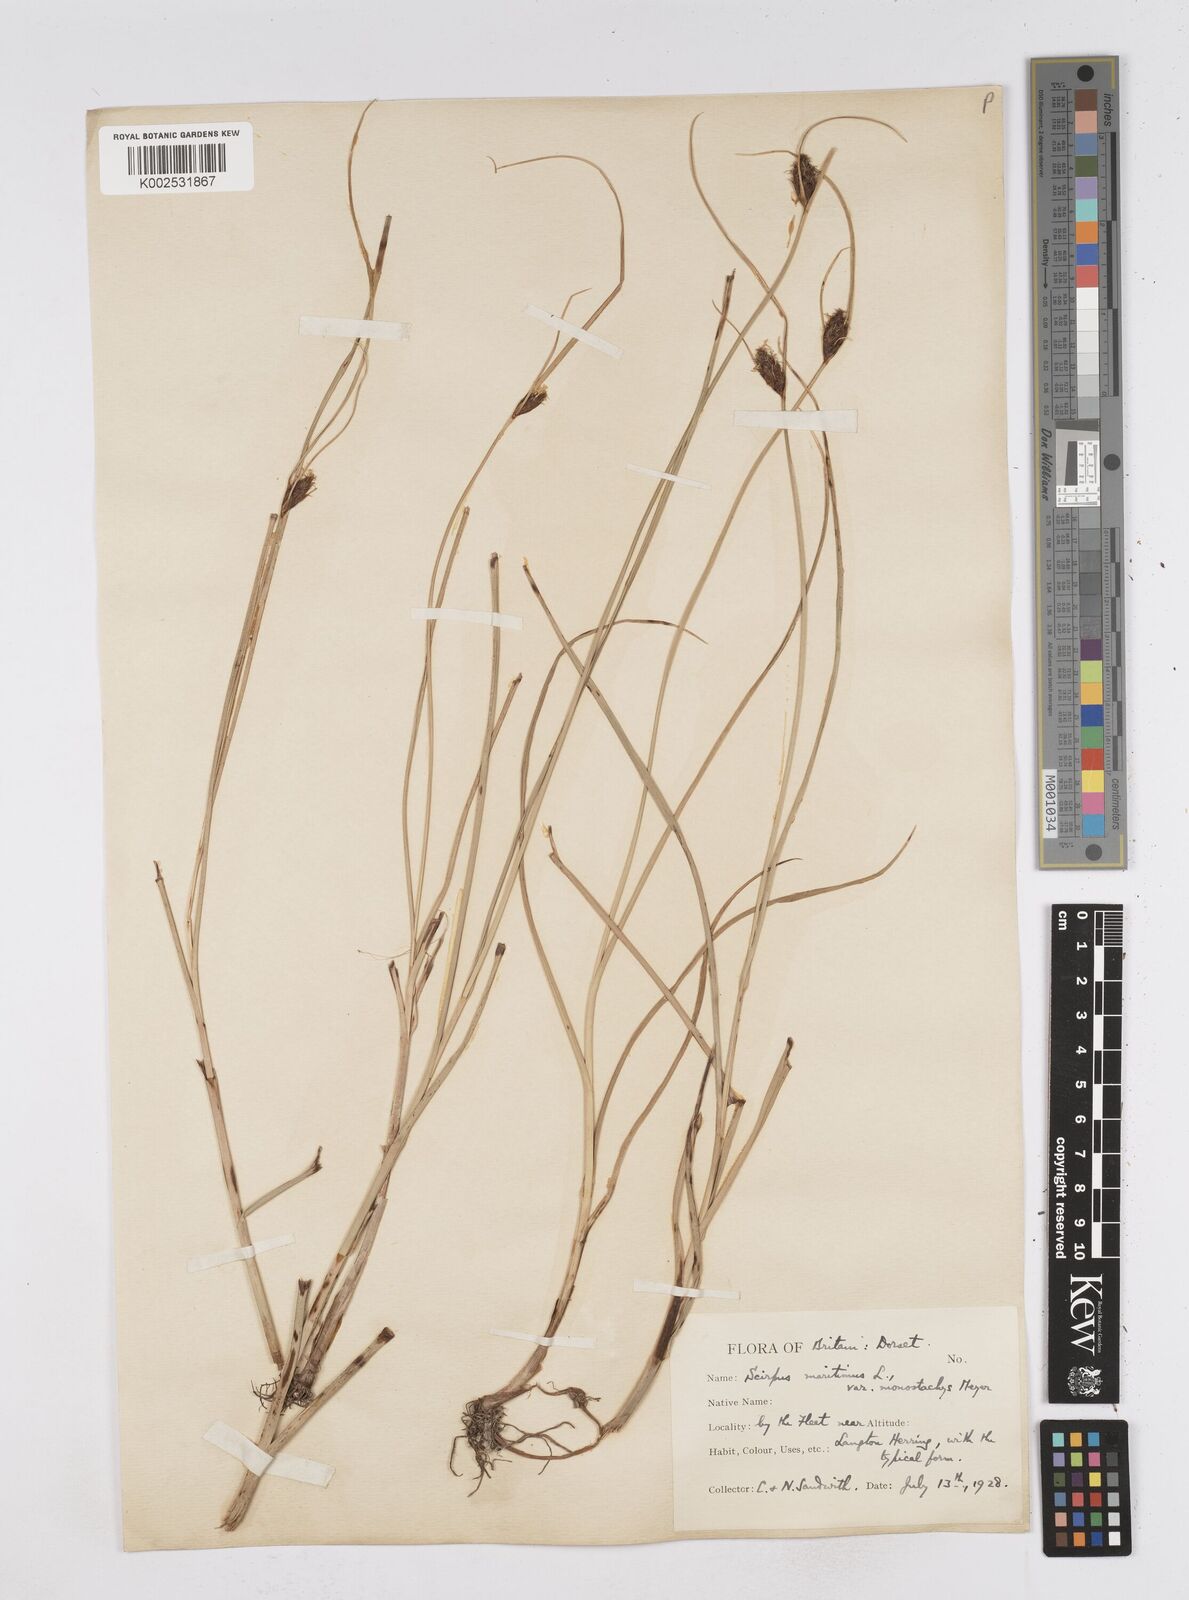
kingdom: Plantae
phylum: Tracheophyta
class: Liliopsida
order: Poales
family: Cyperaceae
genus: Bolboschoenus
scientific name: Bolboschoenus maritimus
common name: Sea club-rush
